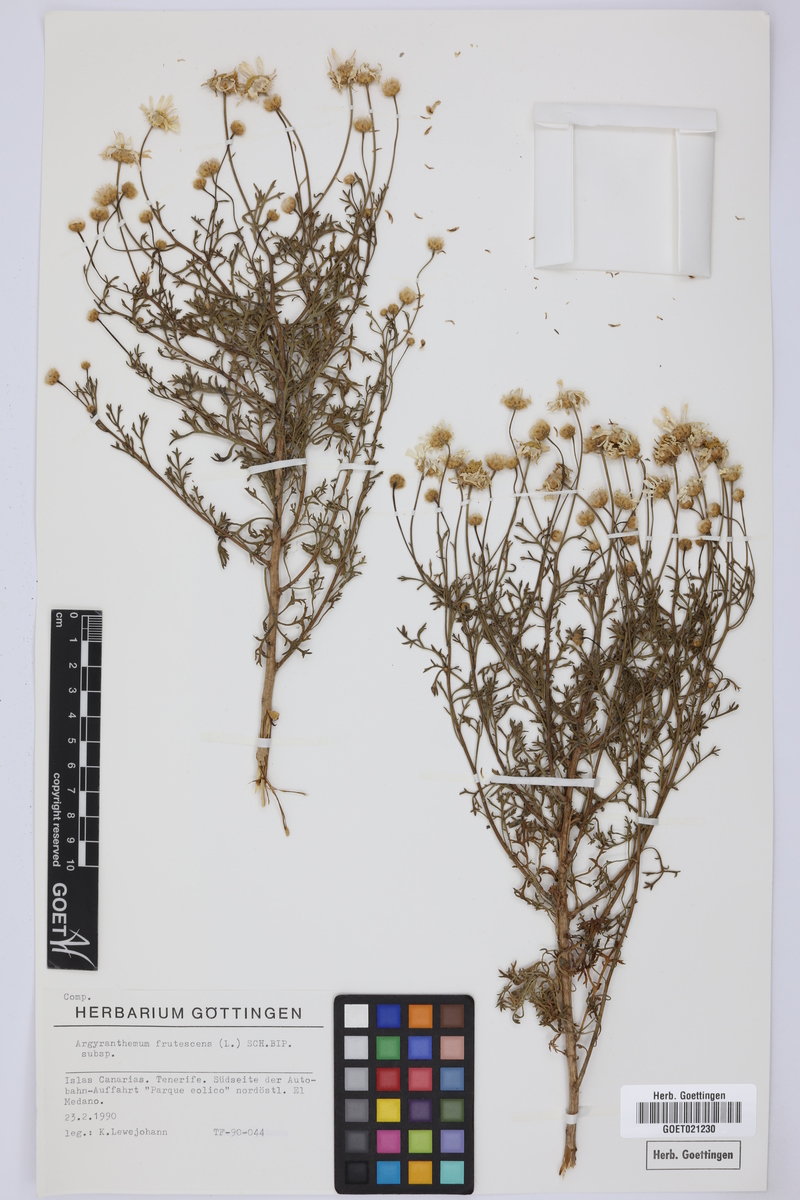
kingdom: Plantae
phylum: Tracheophyta
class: Magnoliopsida
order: Asterales
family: Asteraceae
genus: Argyranthemum
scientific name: Argyranthemum frutescens
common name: Paris daisy
